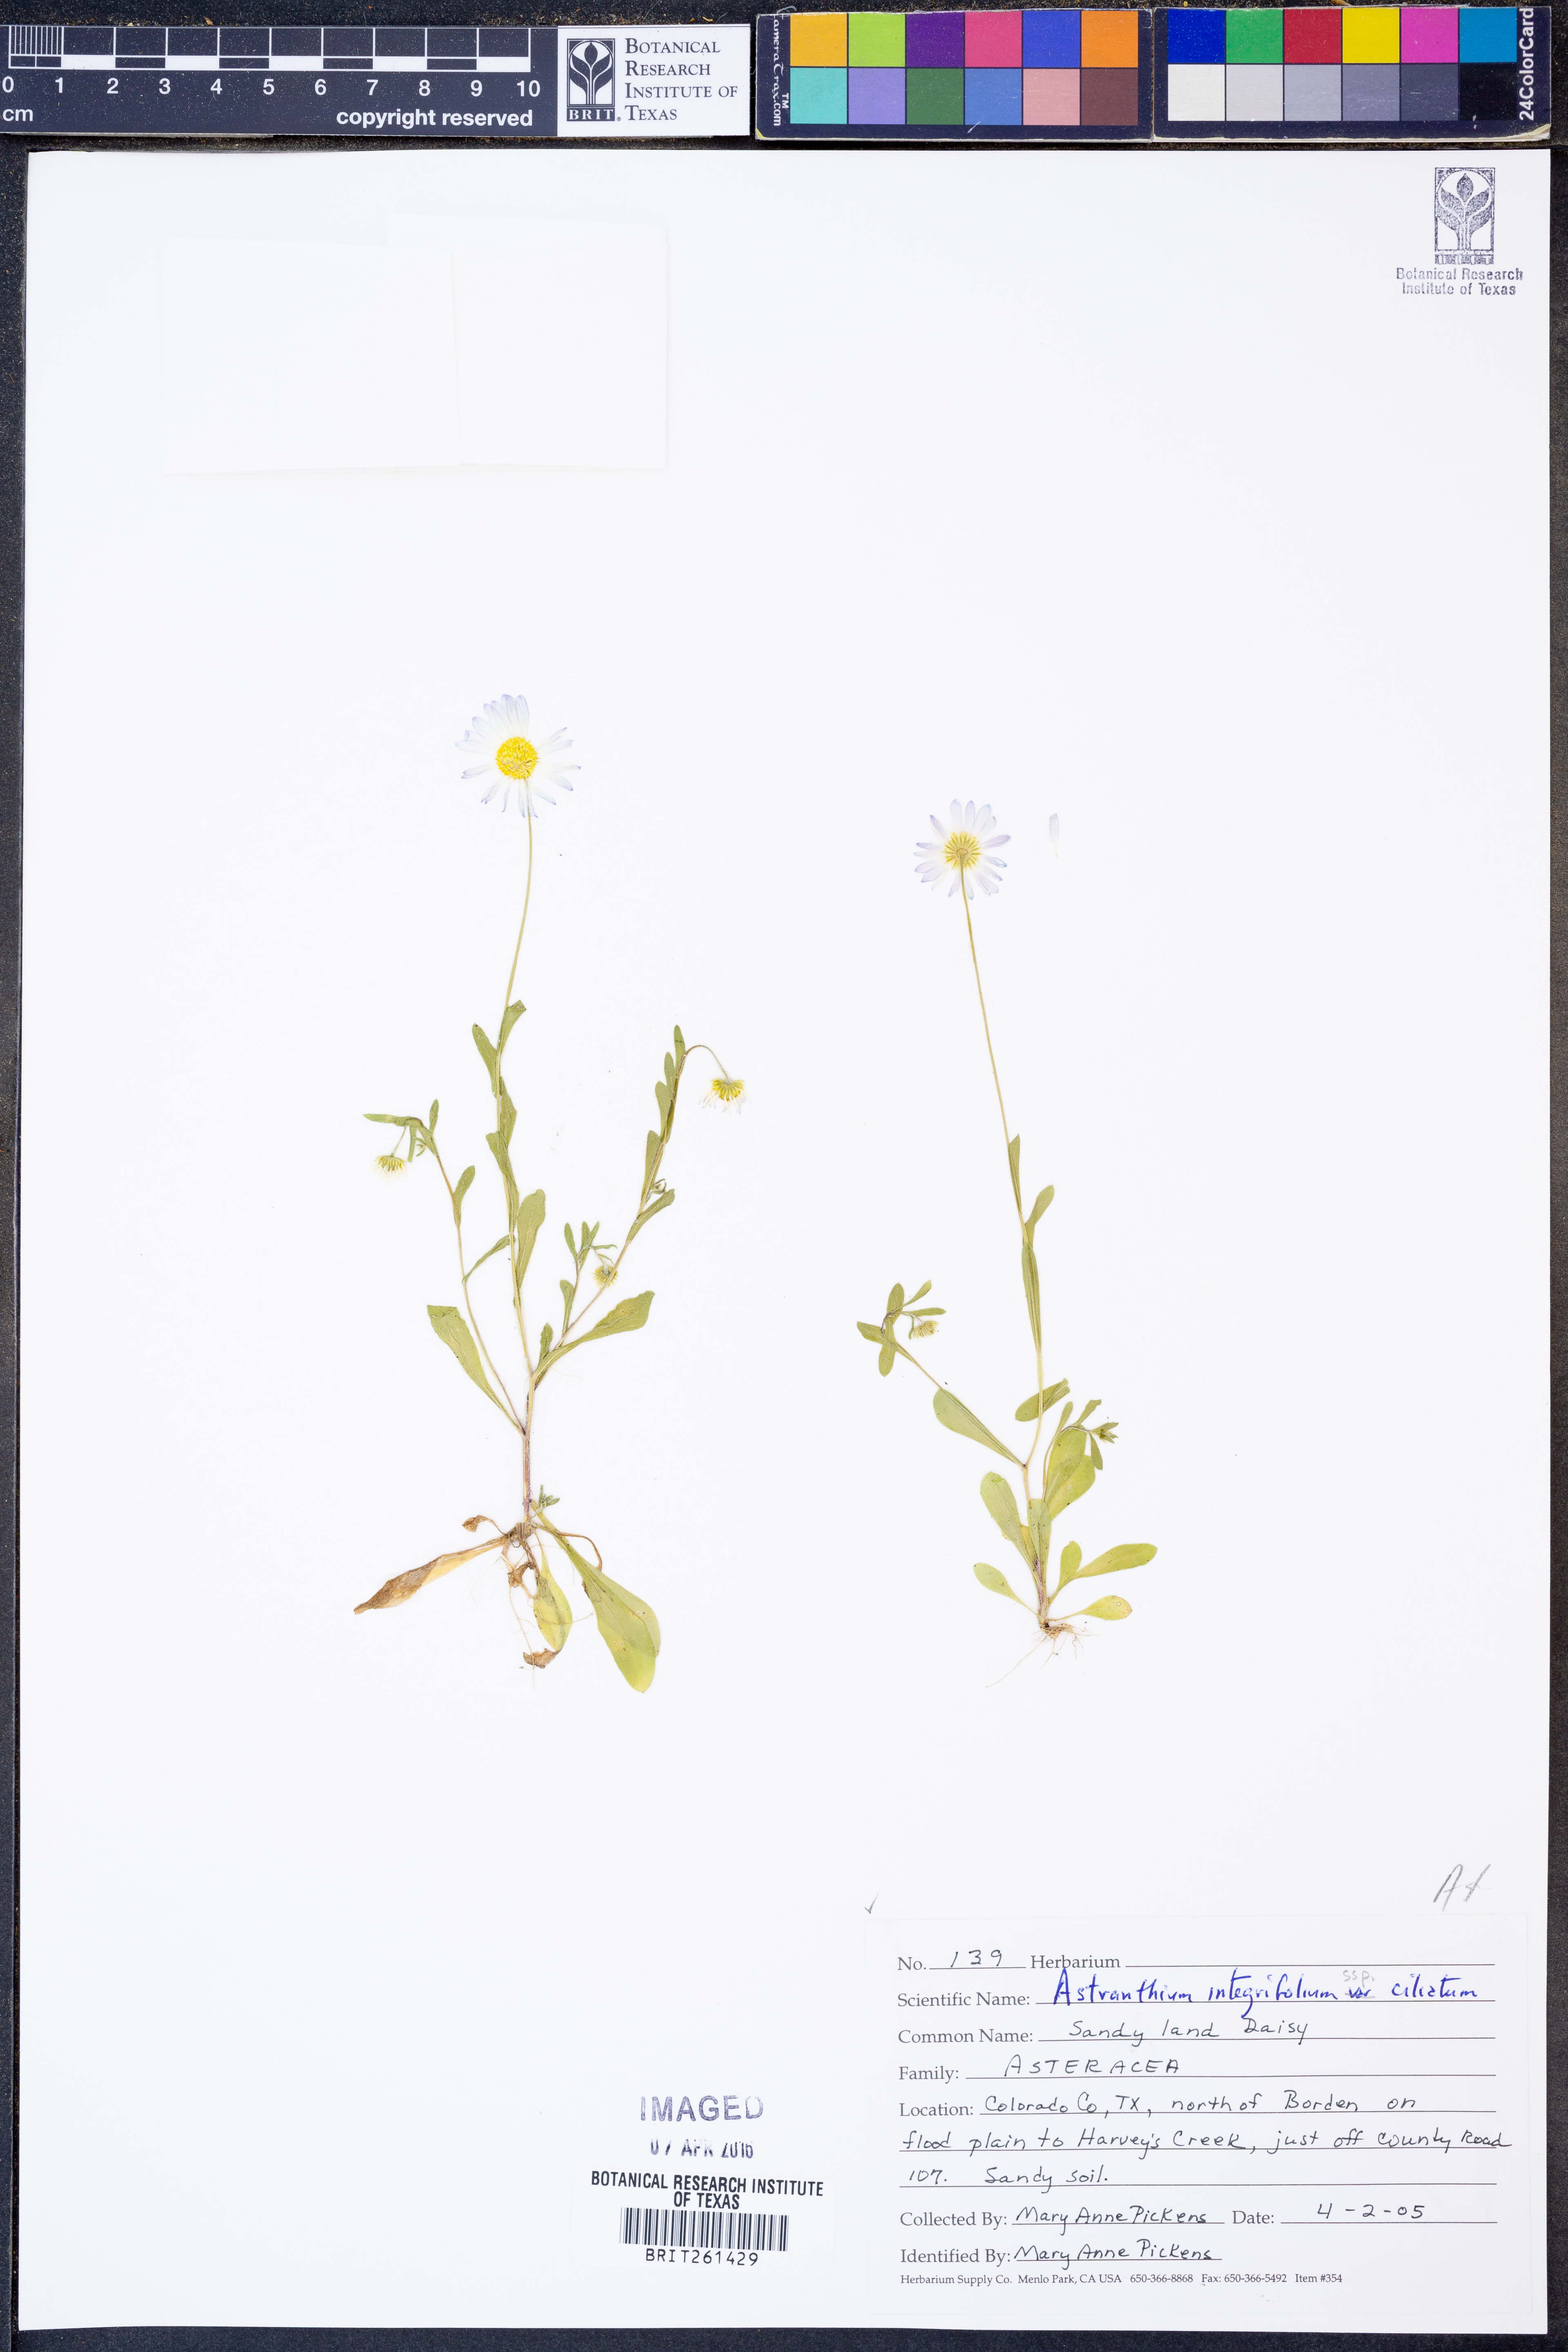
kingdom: Plantae
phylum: Tracheophyta
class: Magnoliopsida
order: Asterales
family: Asteraceae
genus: Astranthium
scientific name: Astranthium ciliatum
